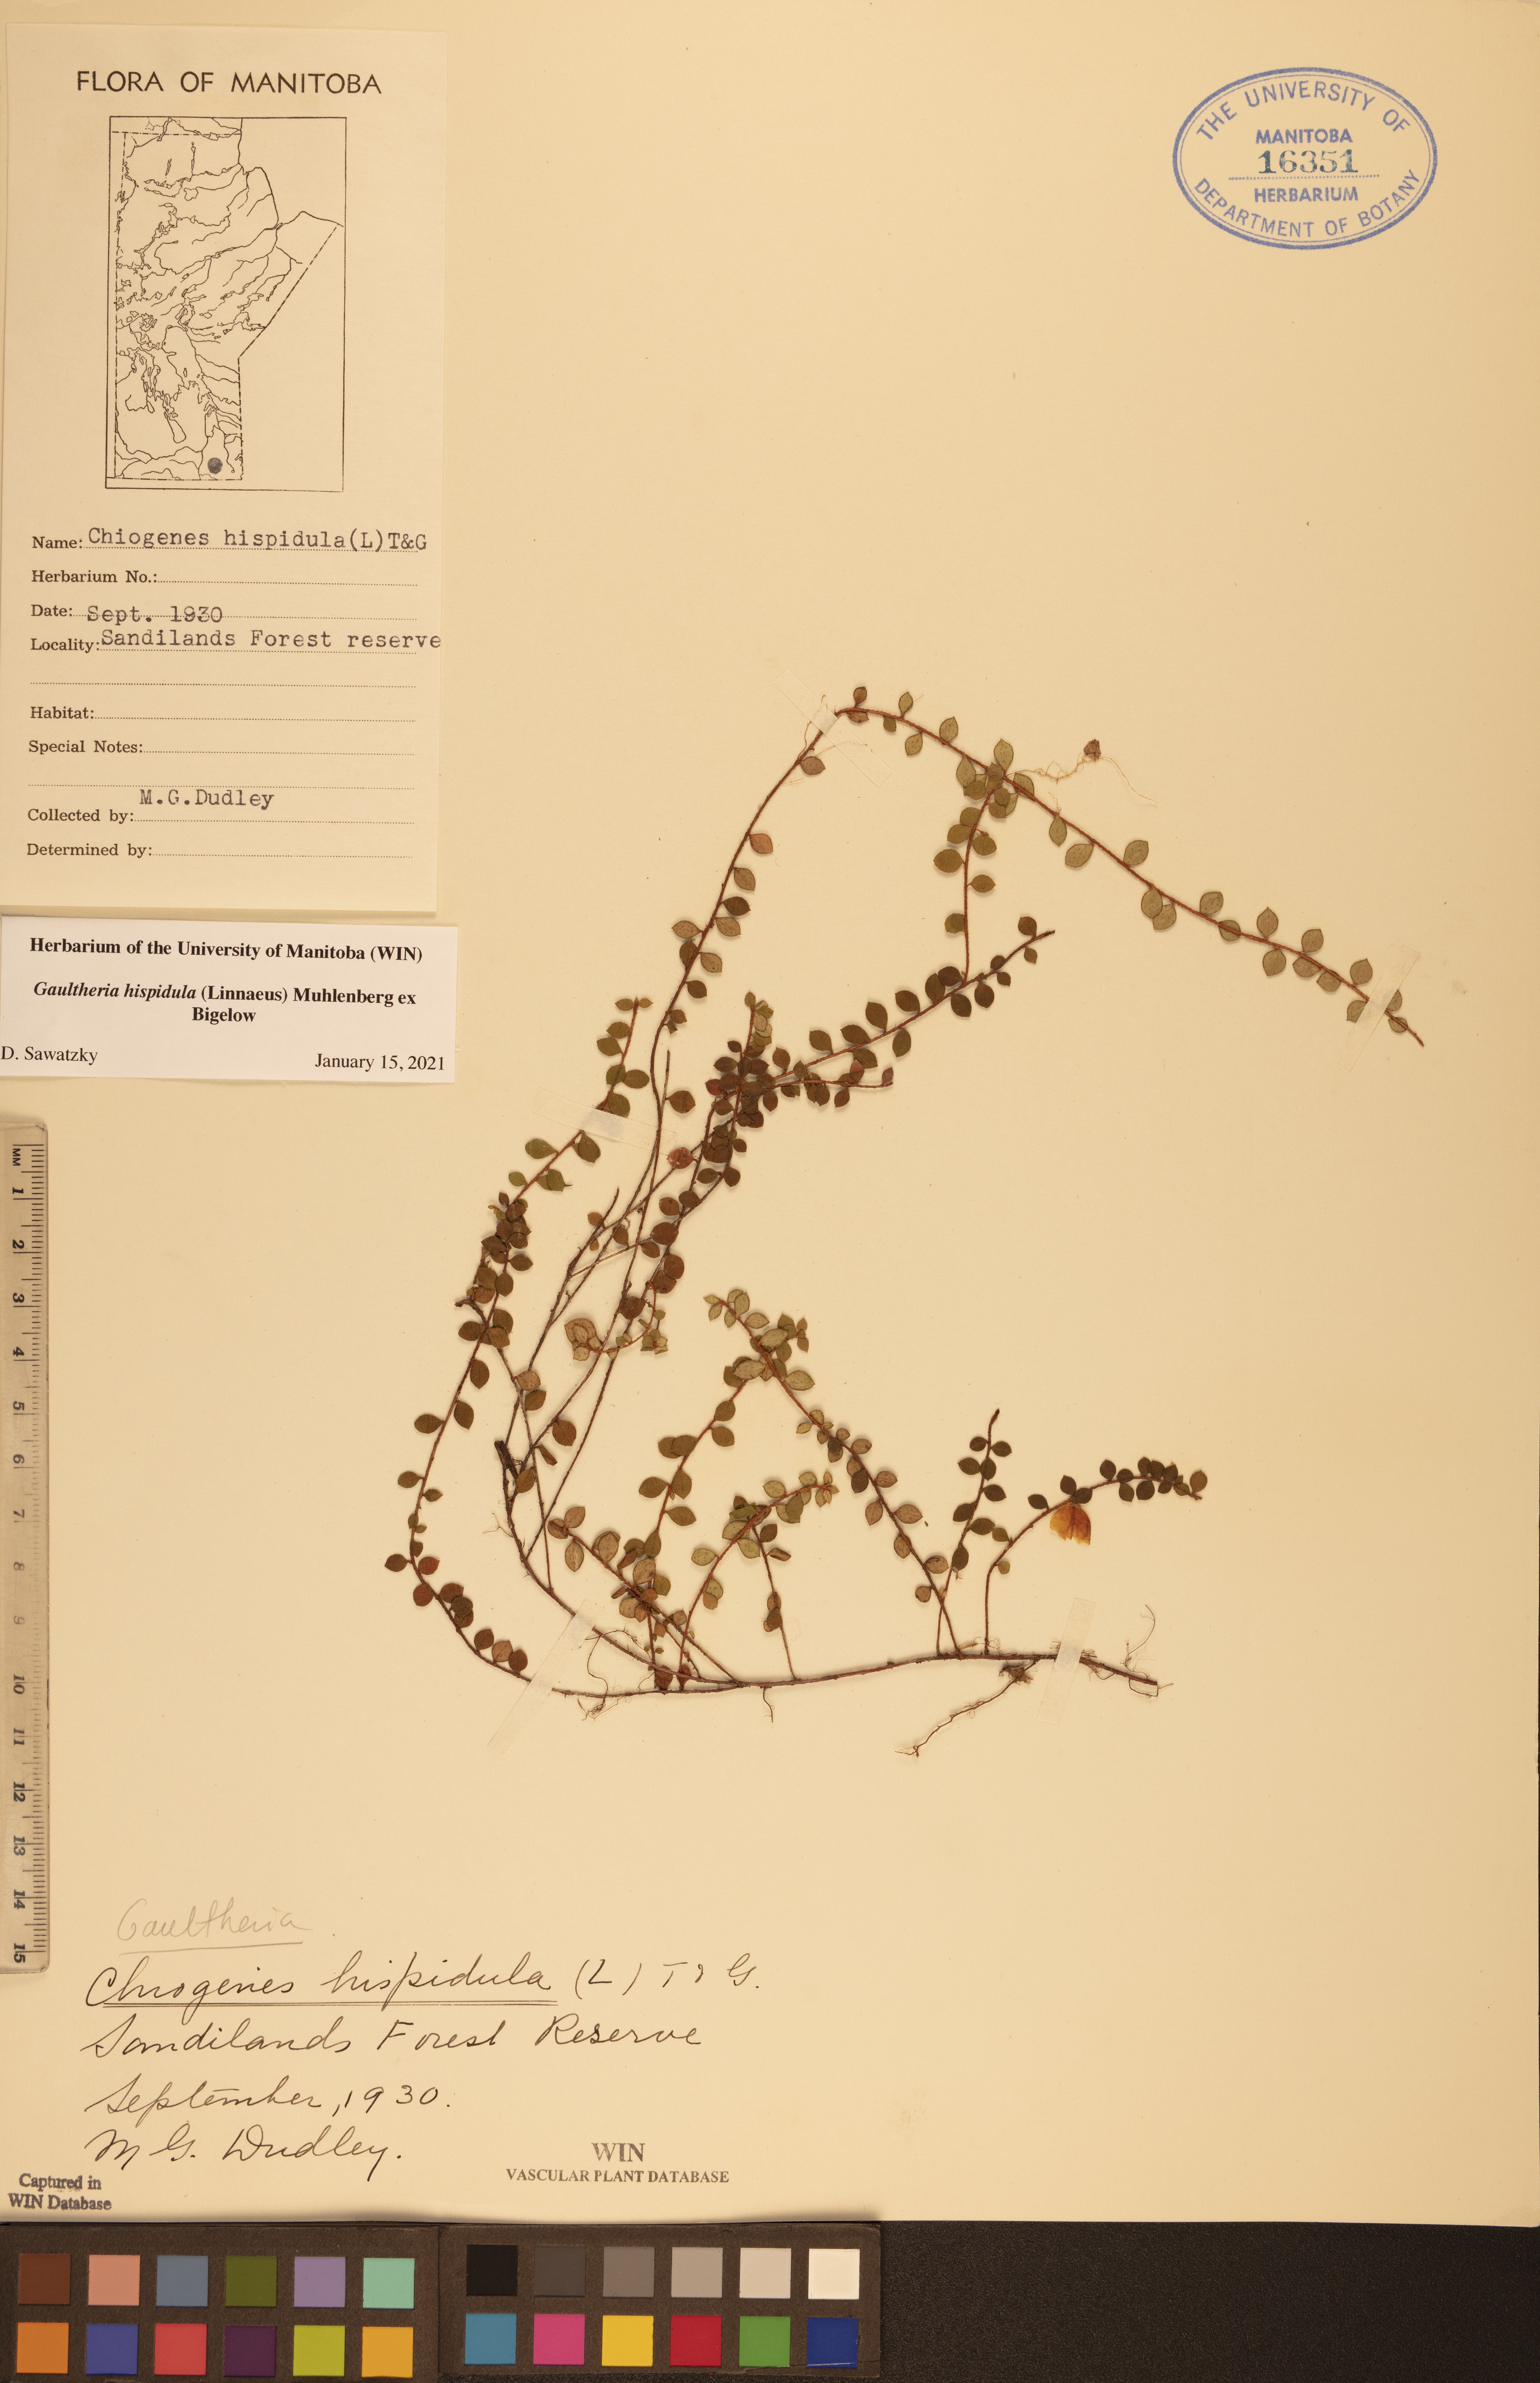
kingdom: Plantae
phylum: Tracheophyta
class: Magnoliopsida
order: Ericales
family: Ericaceae
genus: Gaultheria
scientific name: Gaultheria hispidula
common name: Cancer wintergreen
